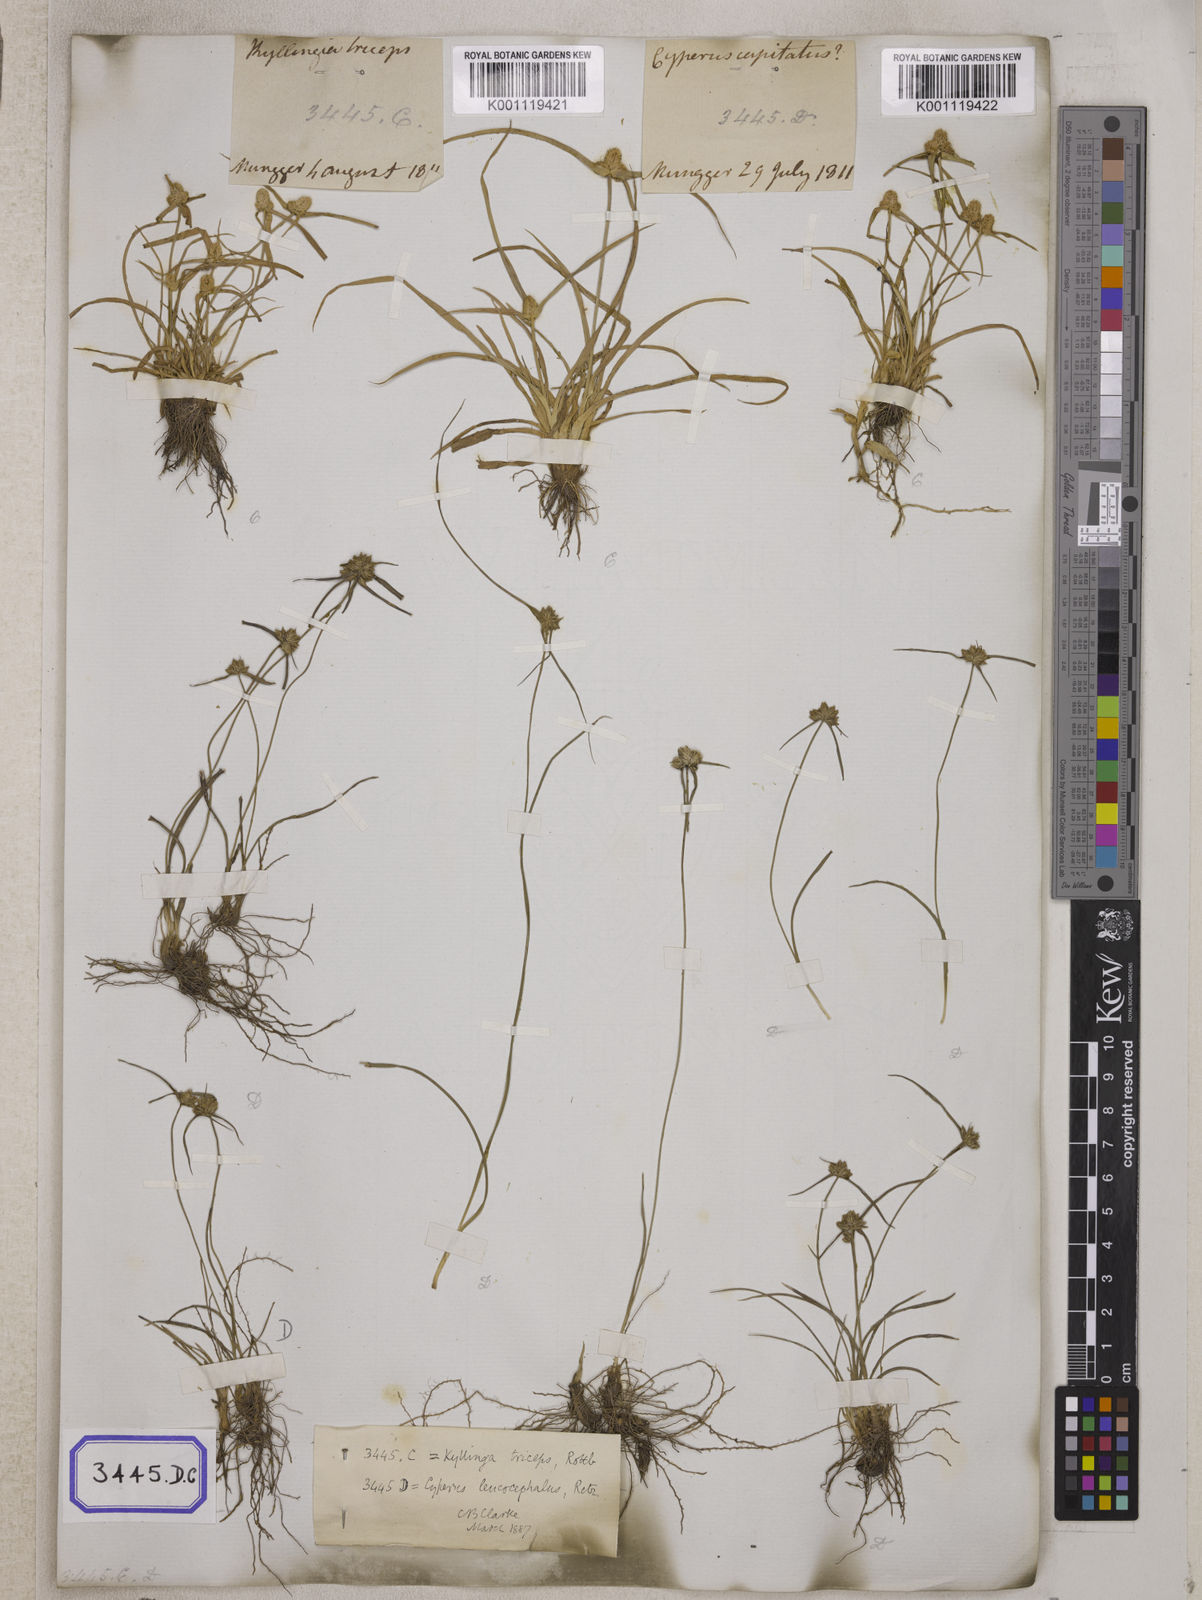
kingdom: Plantae
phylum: Tracheophyta
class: Liliopsida
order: Poales
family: Cyperaceae
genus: Cyperus
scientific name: Cyperus
